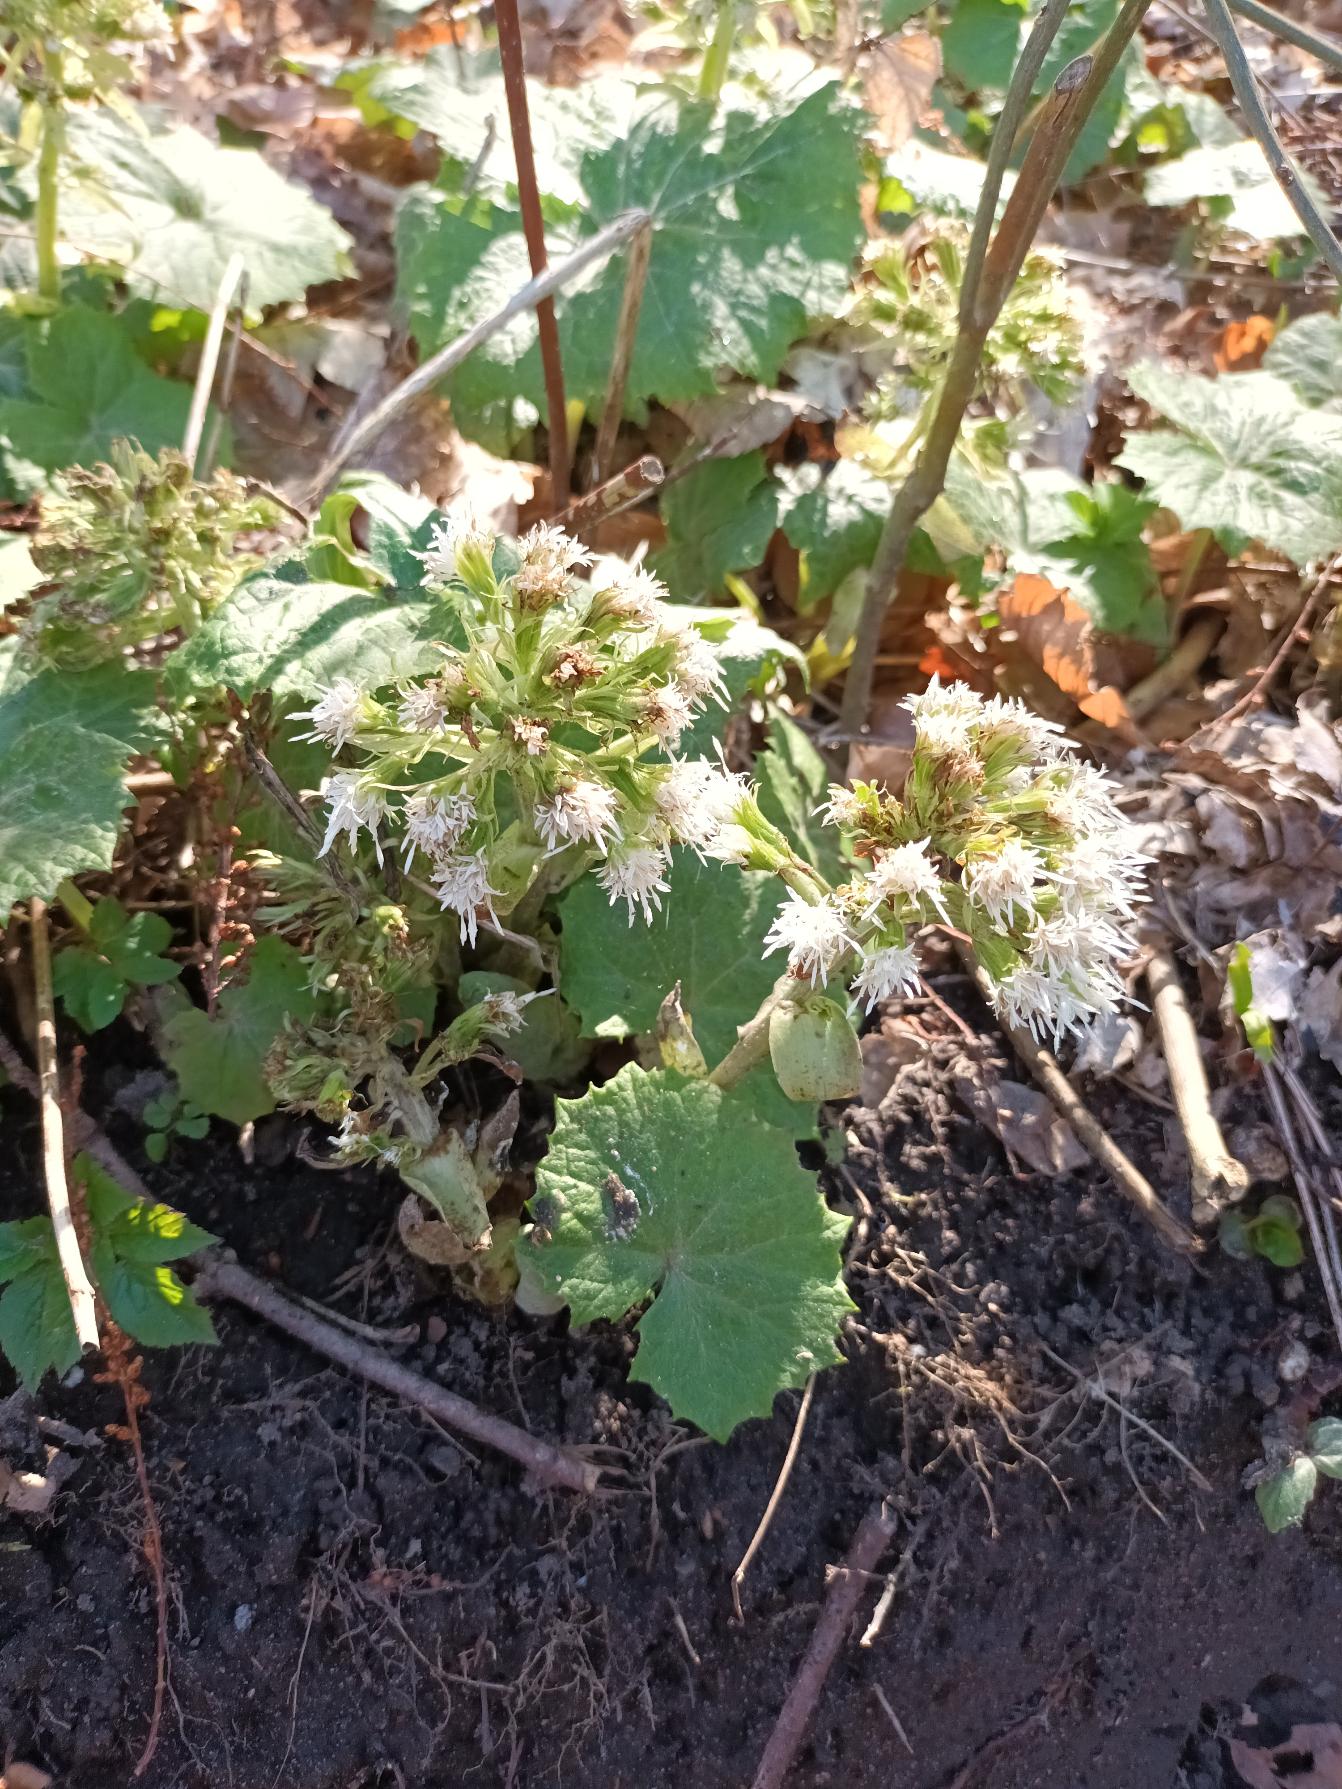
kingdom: Plantae
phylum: Tracheophyta
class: Magnoliopsida
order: Asterales
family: Asteraceae
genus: Petasites
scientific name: Petasites albus
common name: Hvid hestehov
